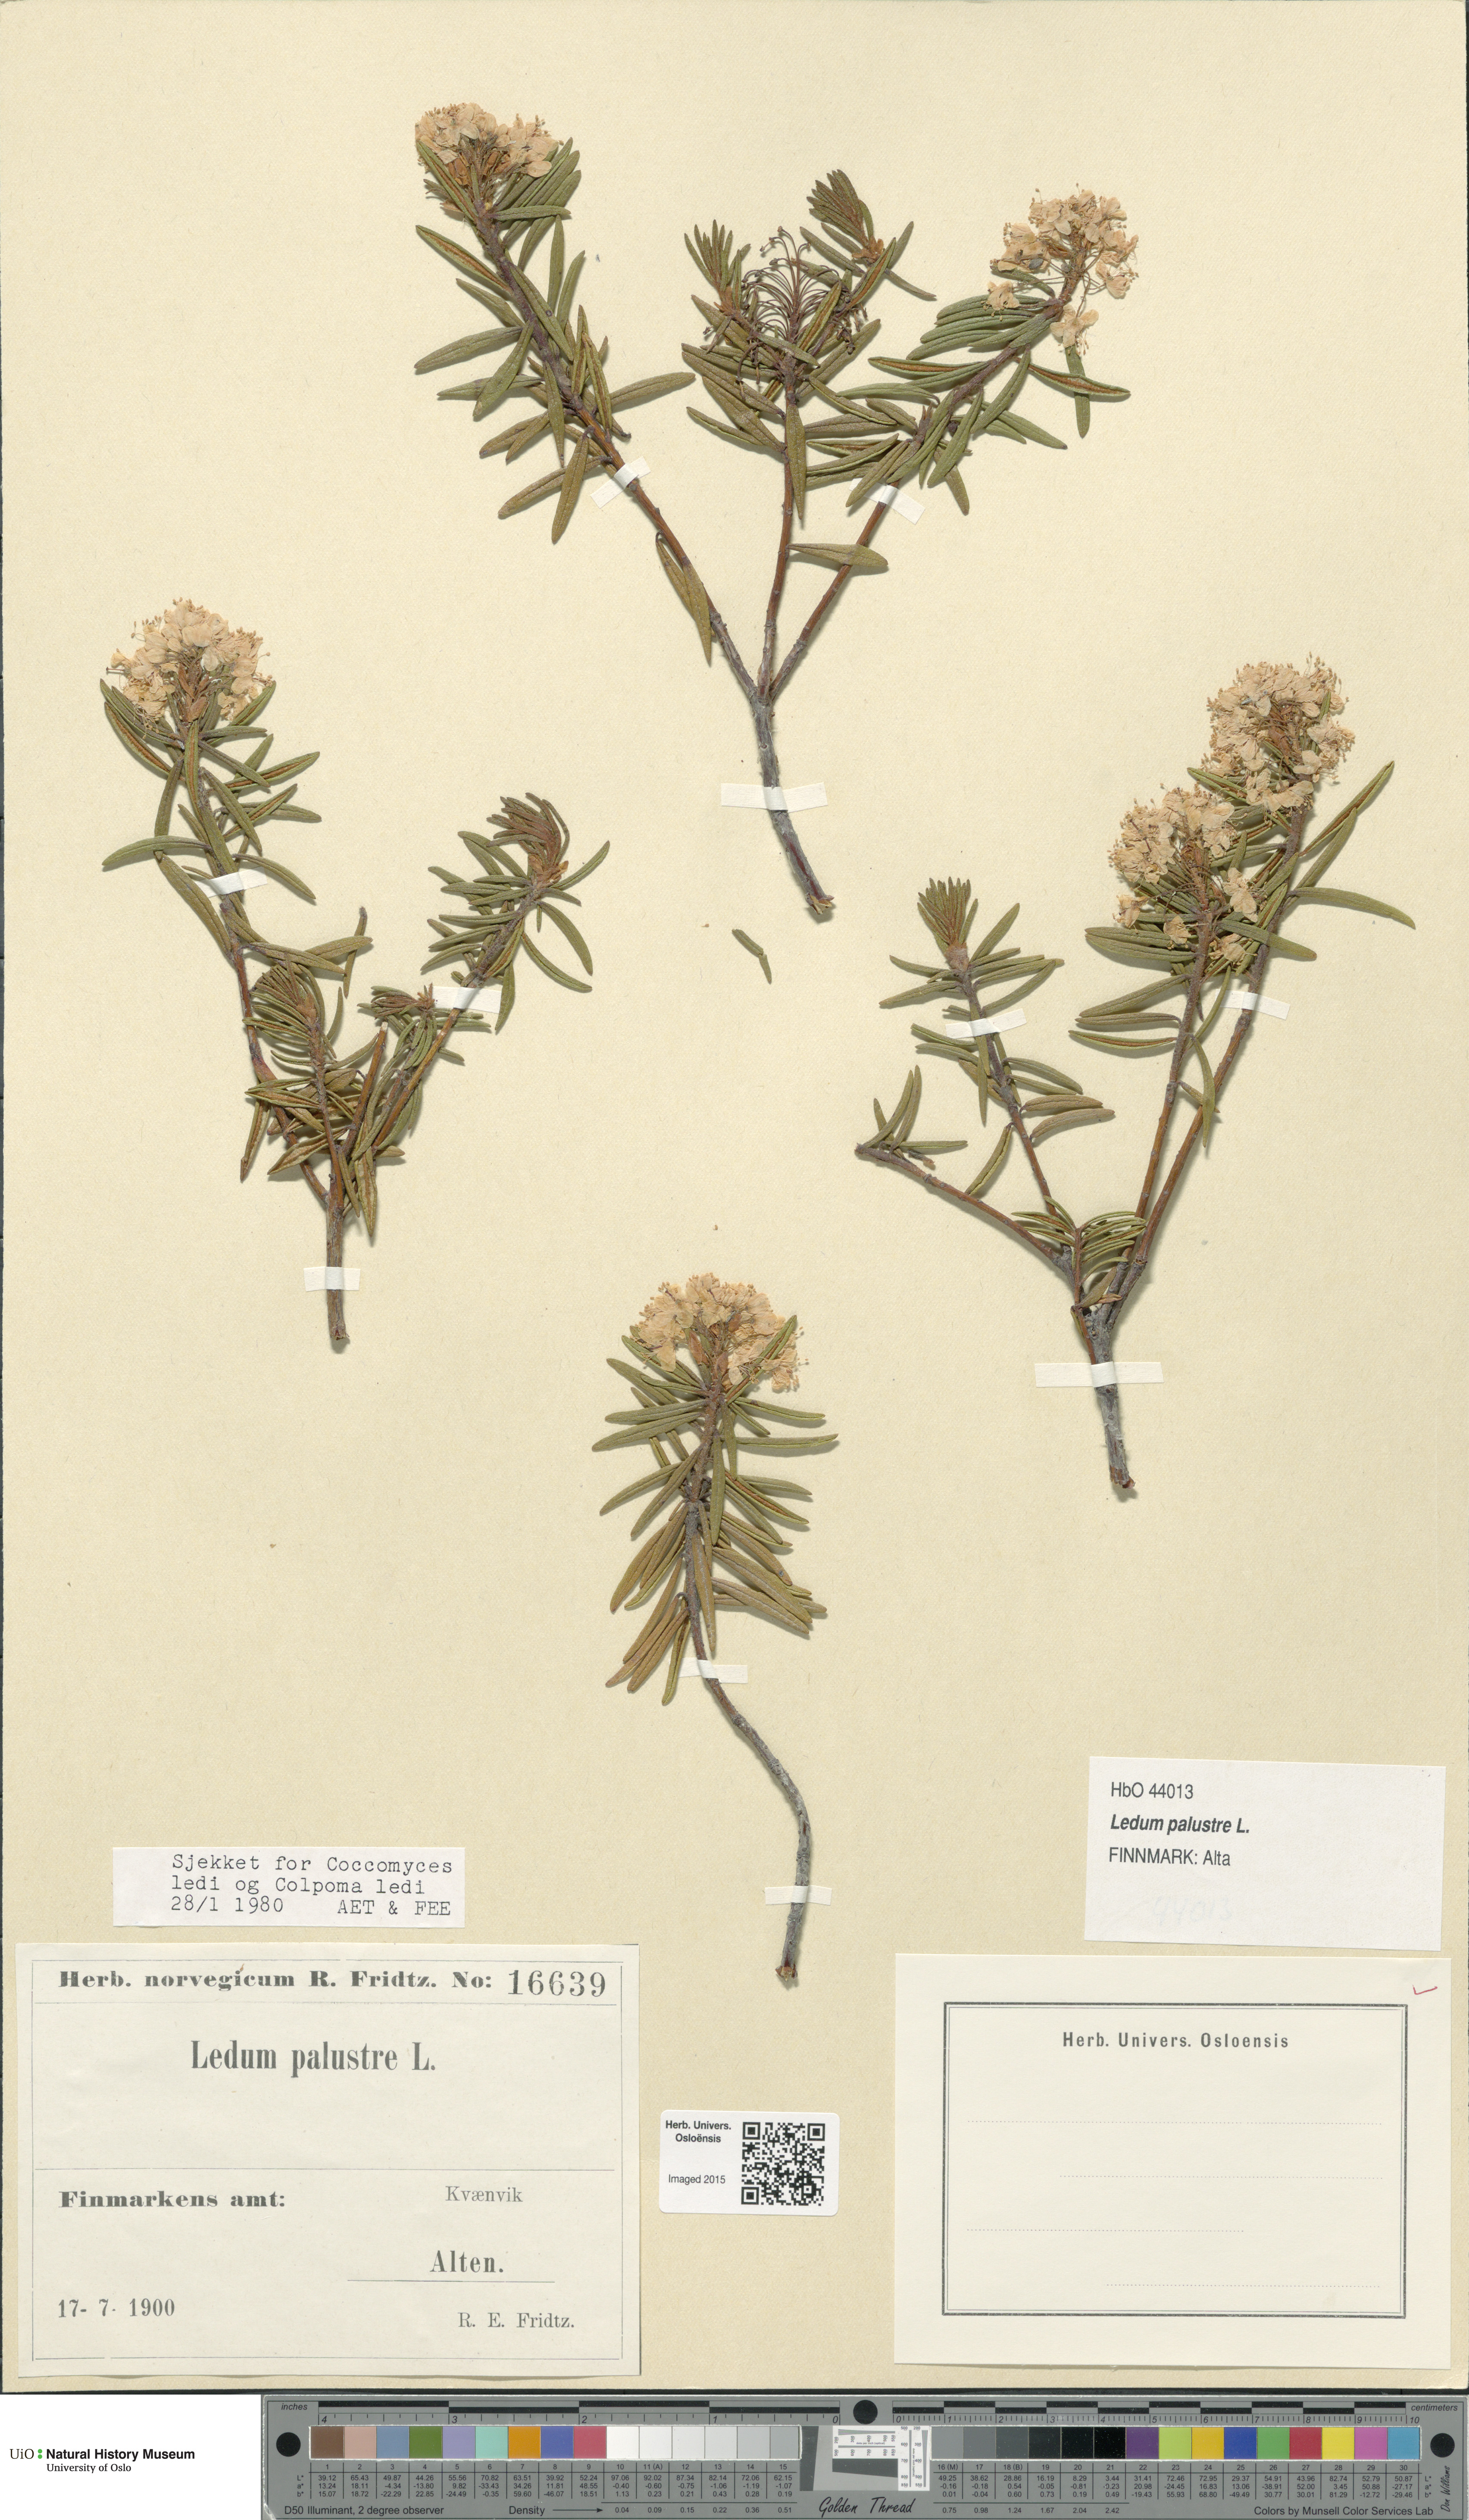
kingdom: Plantae
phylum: Tracheophyta
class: Magnoliopsida
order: Ericales
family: Ericaceae
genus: Rhododendron
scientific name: Rhododendron tomentosum
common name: Marsh labrador tea
